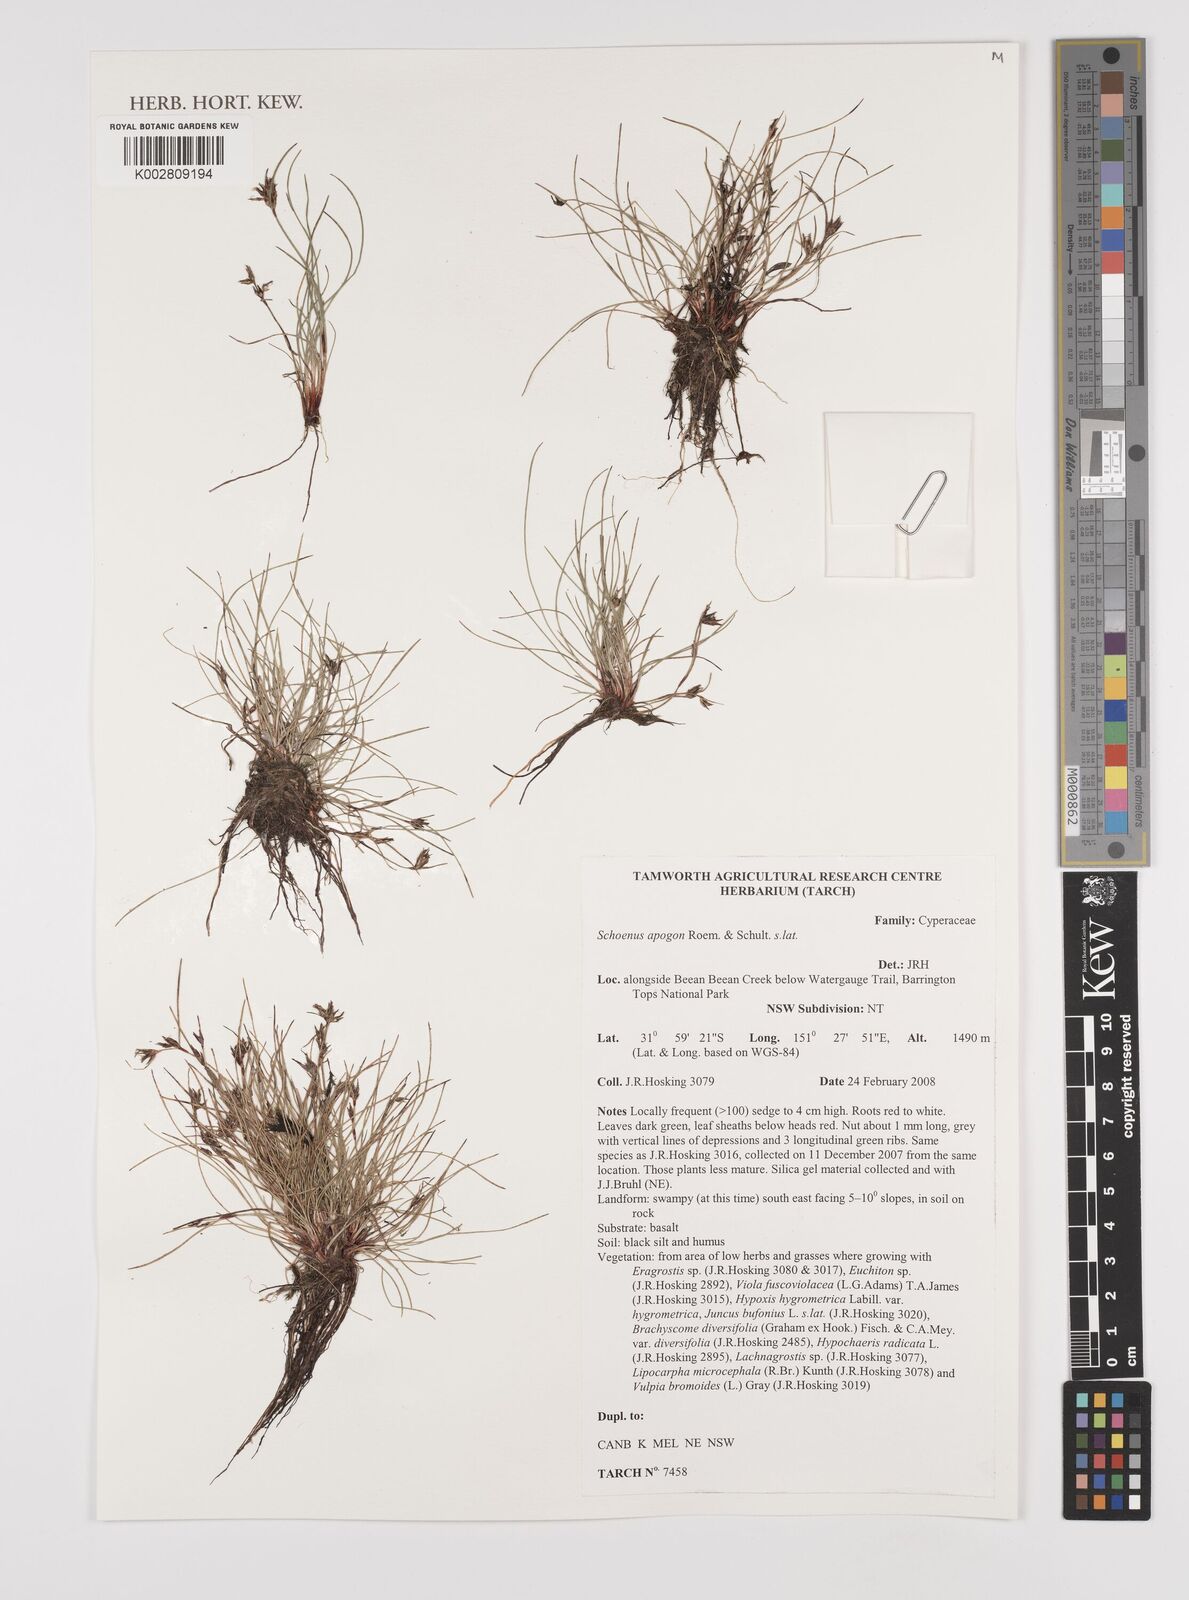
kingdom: Plantae
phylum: Tracheophyta
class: Liliopsida
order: Poales
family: Cyperaceae
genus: Schoenus
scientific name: Schoenus apogon
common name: Smooth bogrush
